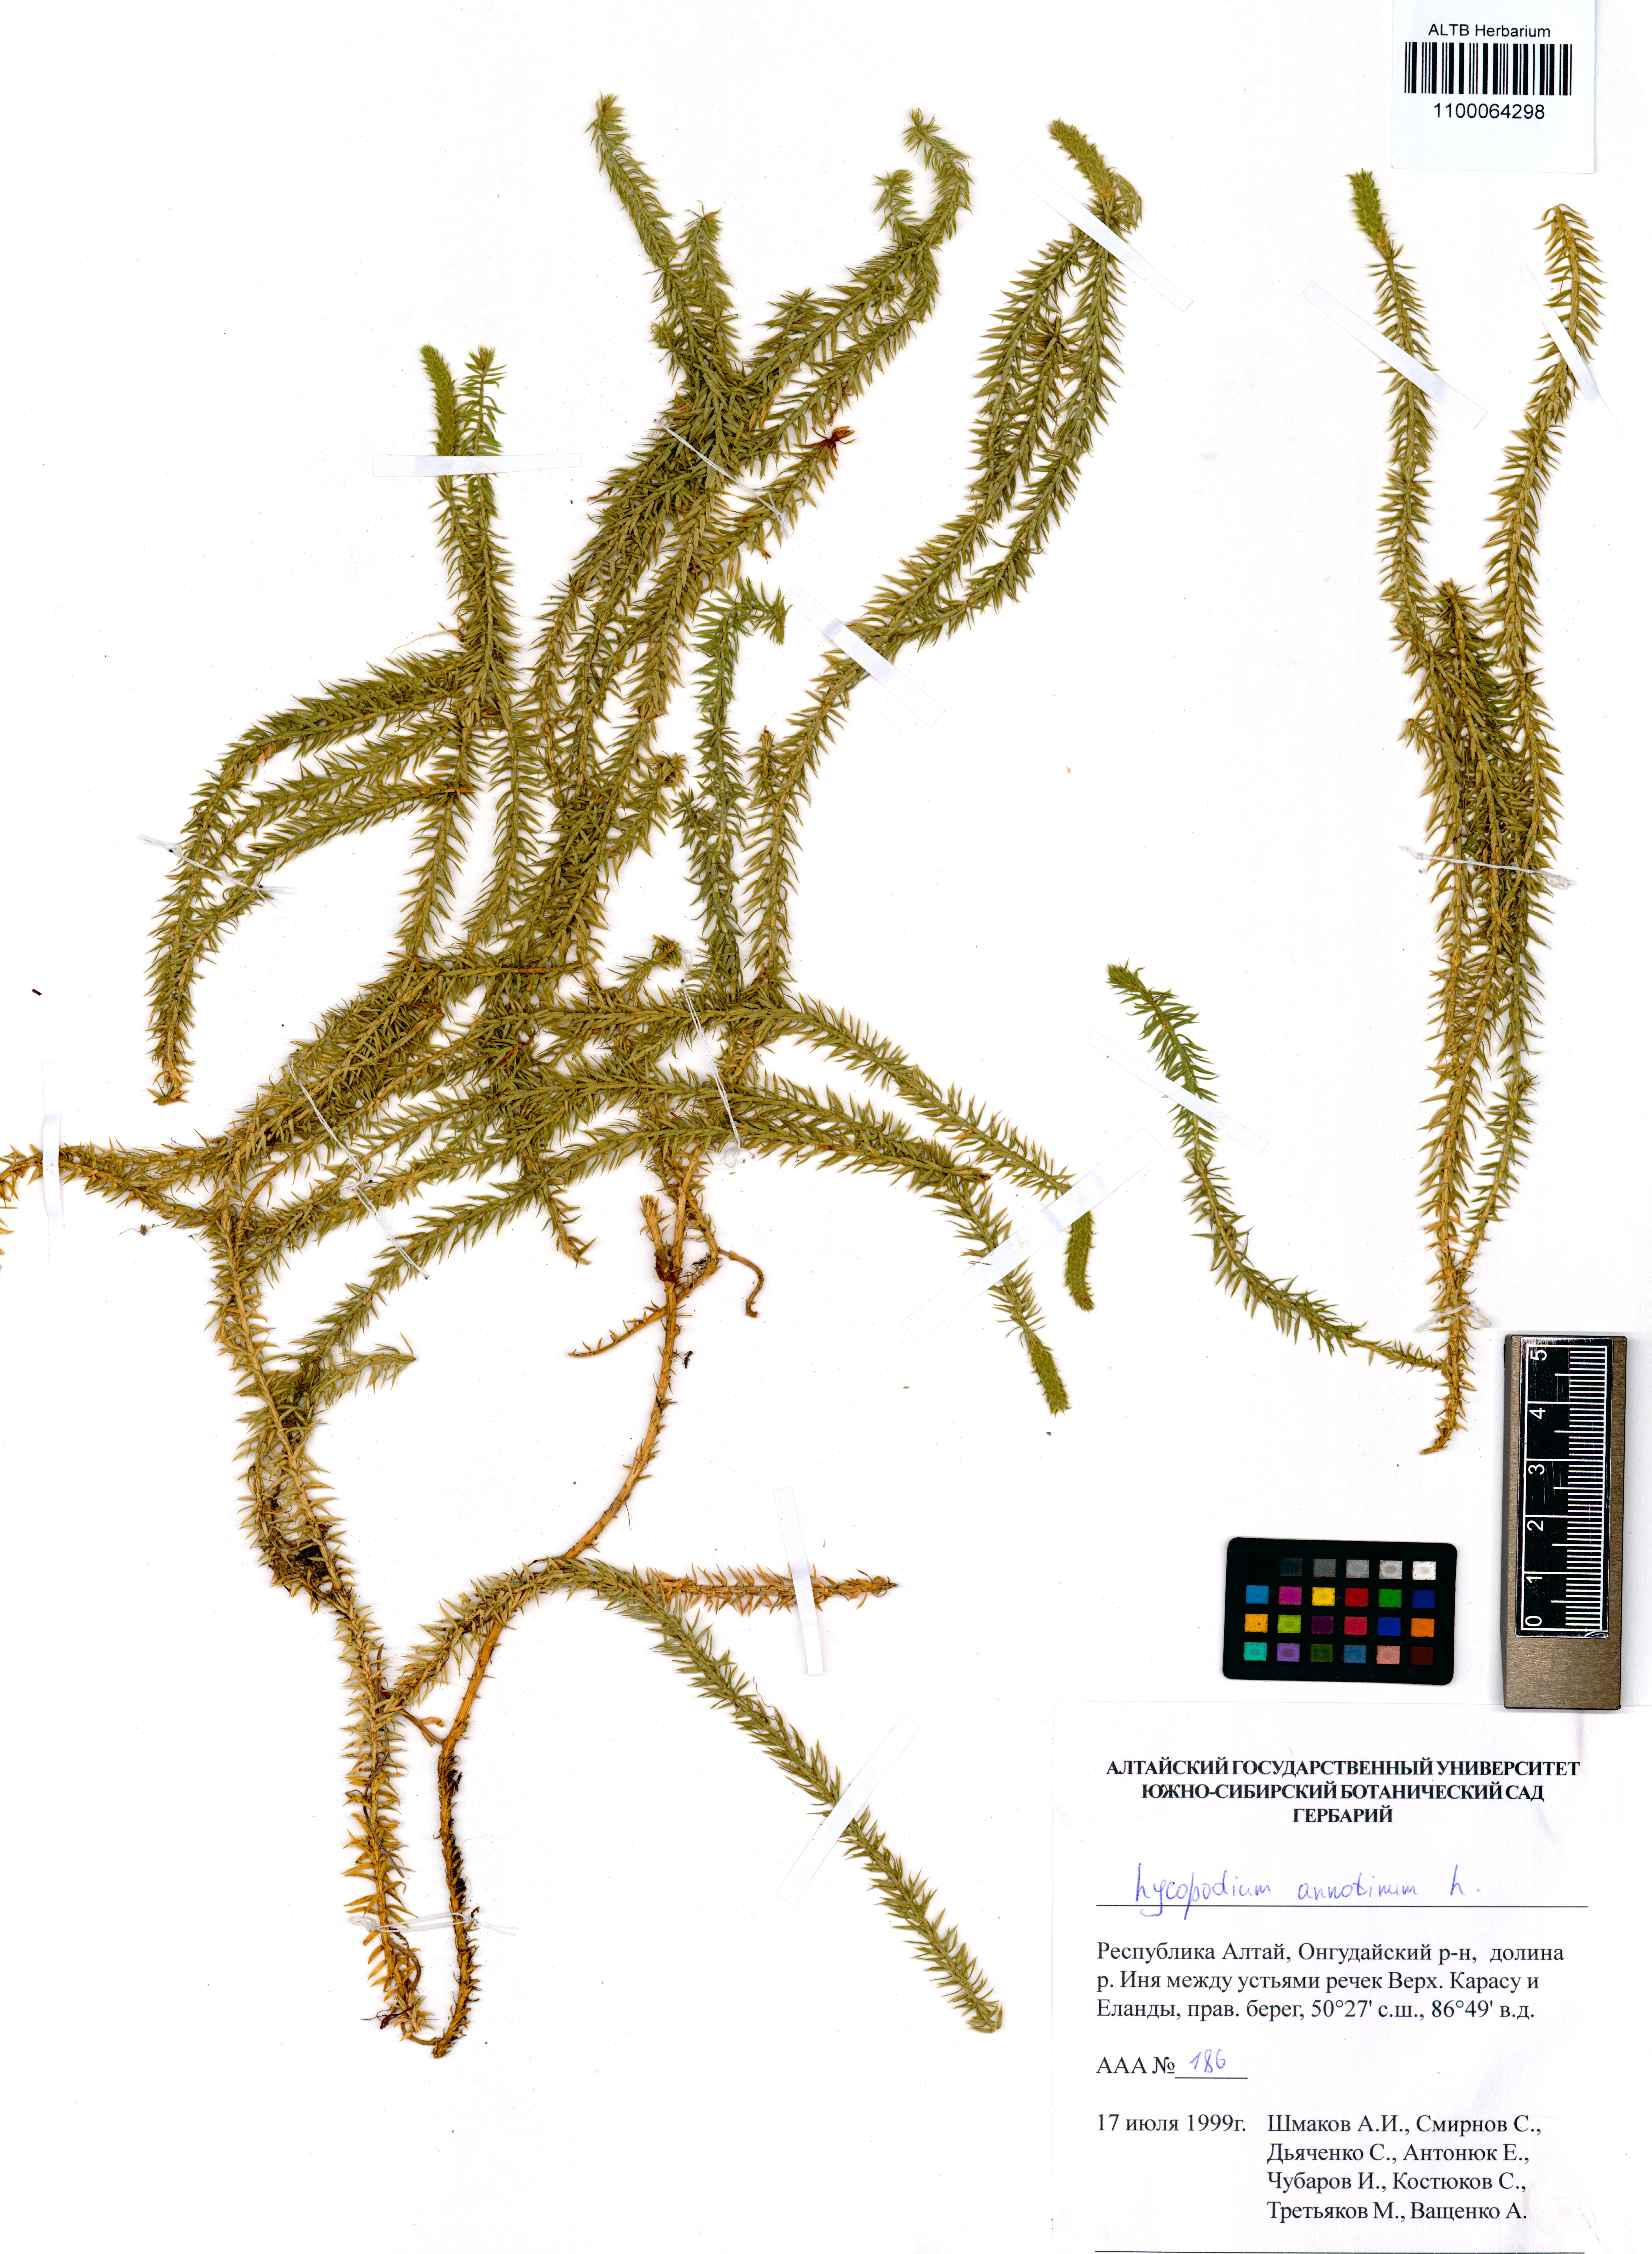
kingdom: Plantae
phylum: Tracheophyta
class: Lycopodiopsida
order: Lycopodiales
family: Lycopodiaceae
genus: Spinulum
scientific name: Spinulum annotinum
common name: Interrupted club-moss
